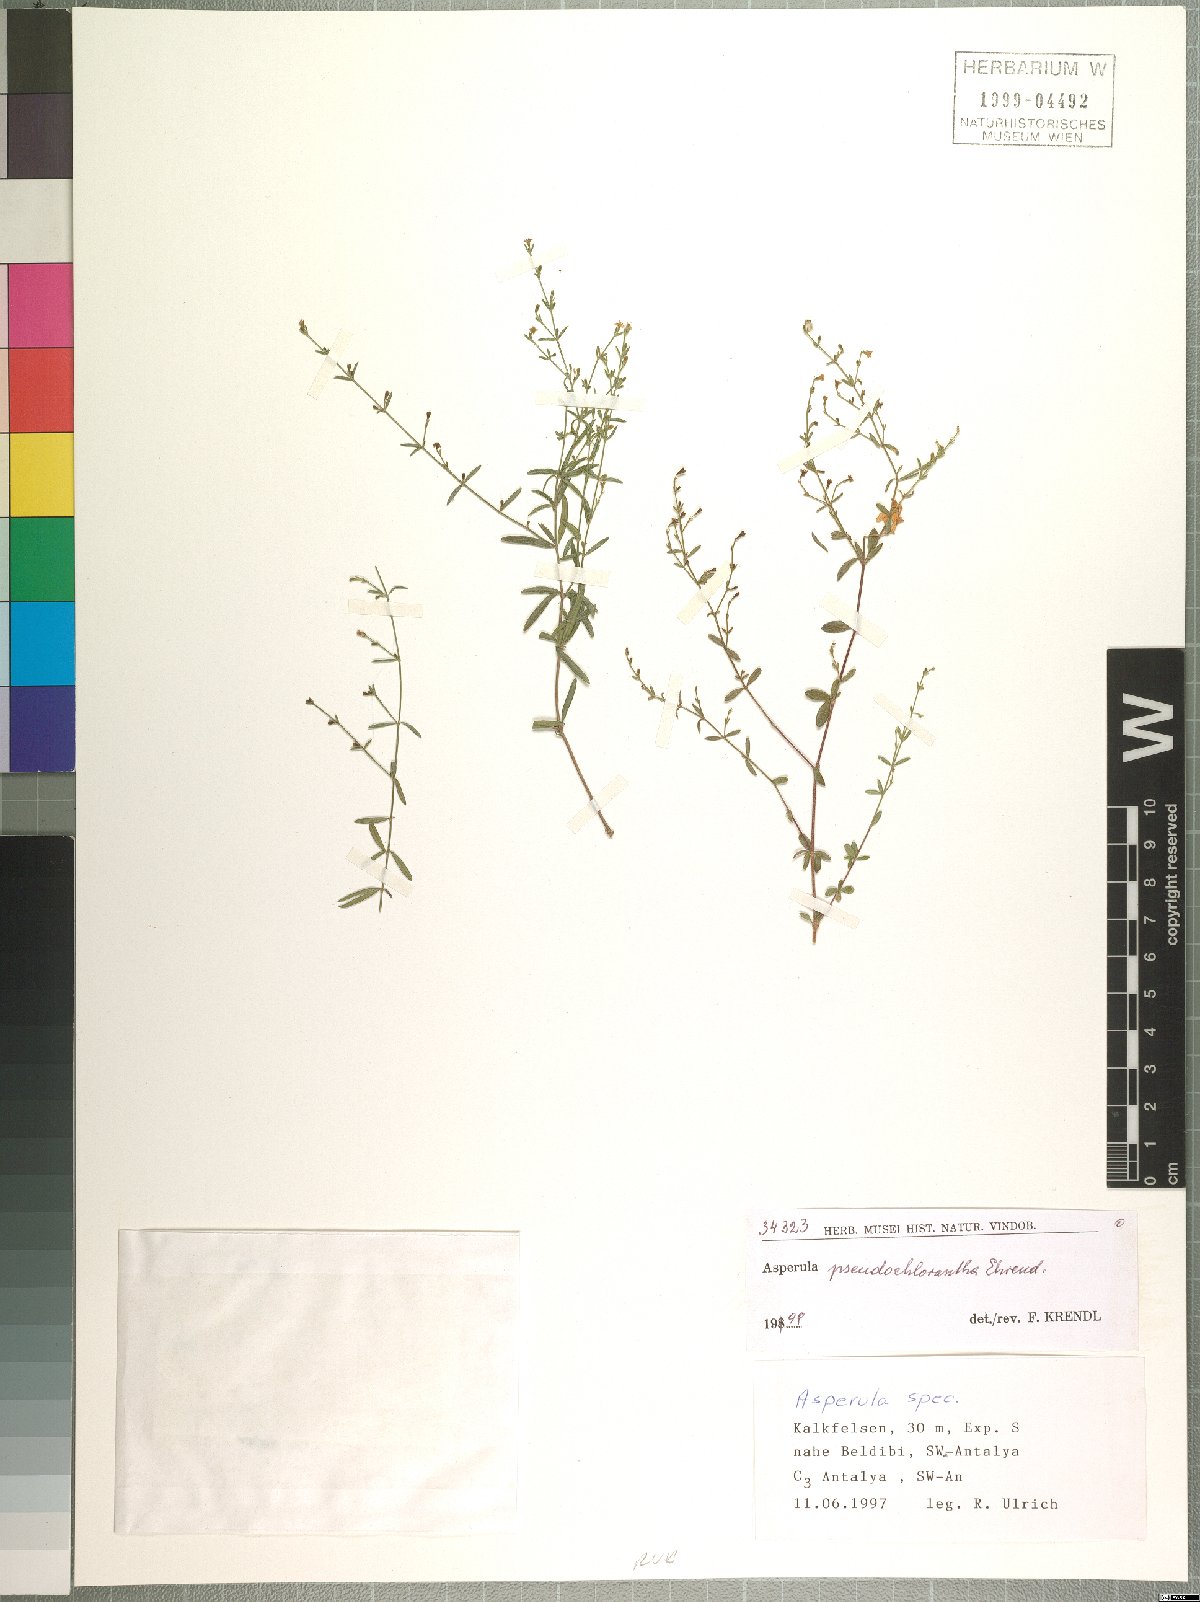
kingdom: Plantae
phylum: Tracheophyta
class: Magnoliopsida
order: Gentianales
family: Rubiaceae
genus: Thliphthisa
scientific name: Thliphthisa pseudochlorantha
